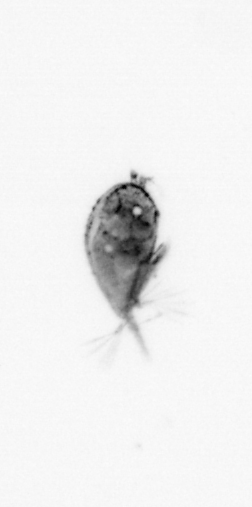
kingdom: Animalia
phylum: Arthropoda
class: Maxillopoda
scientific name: Maxillopoda
